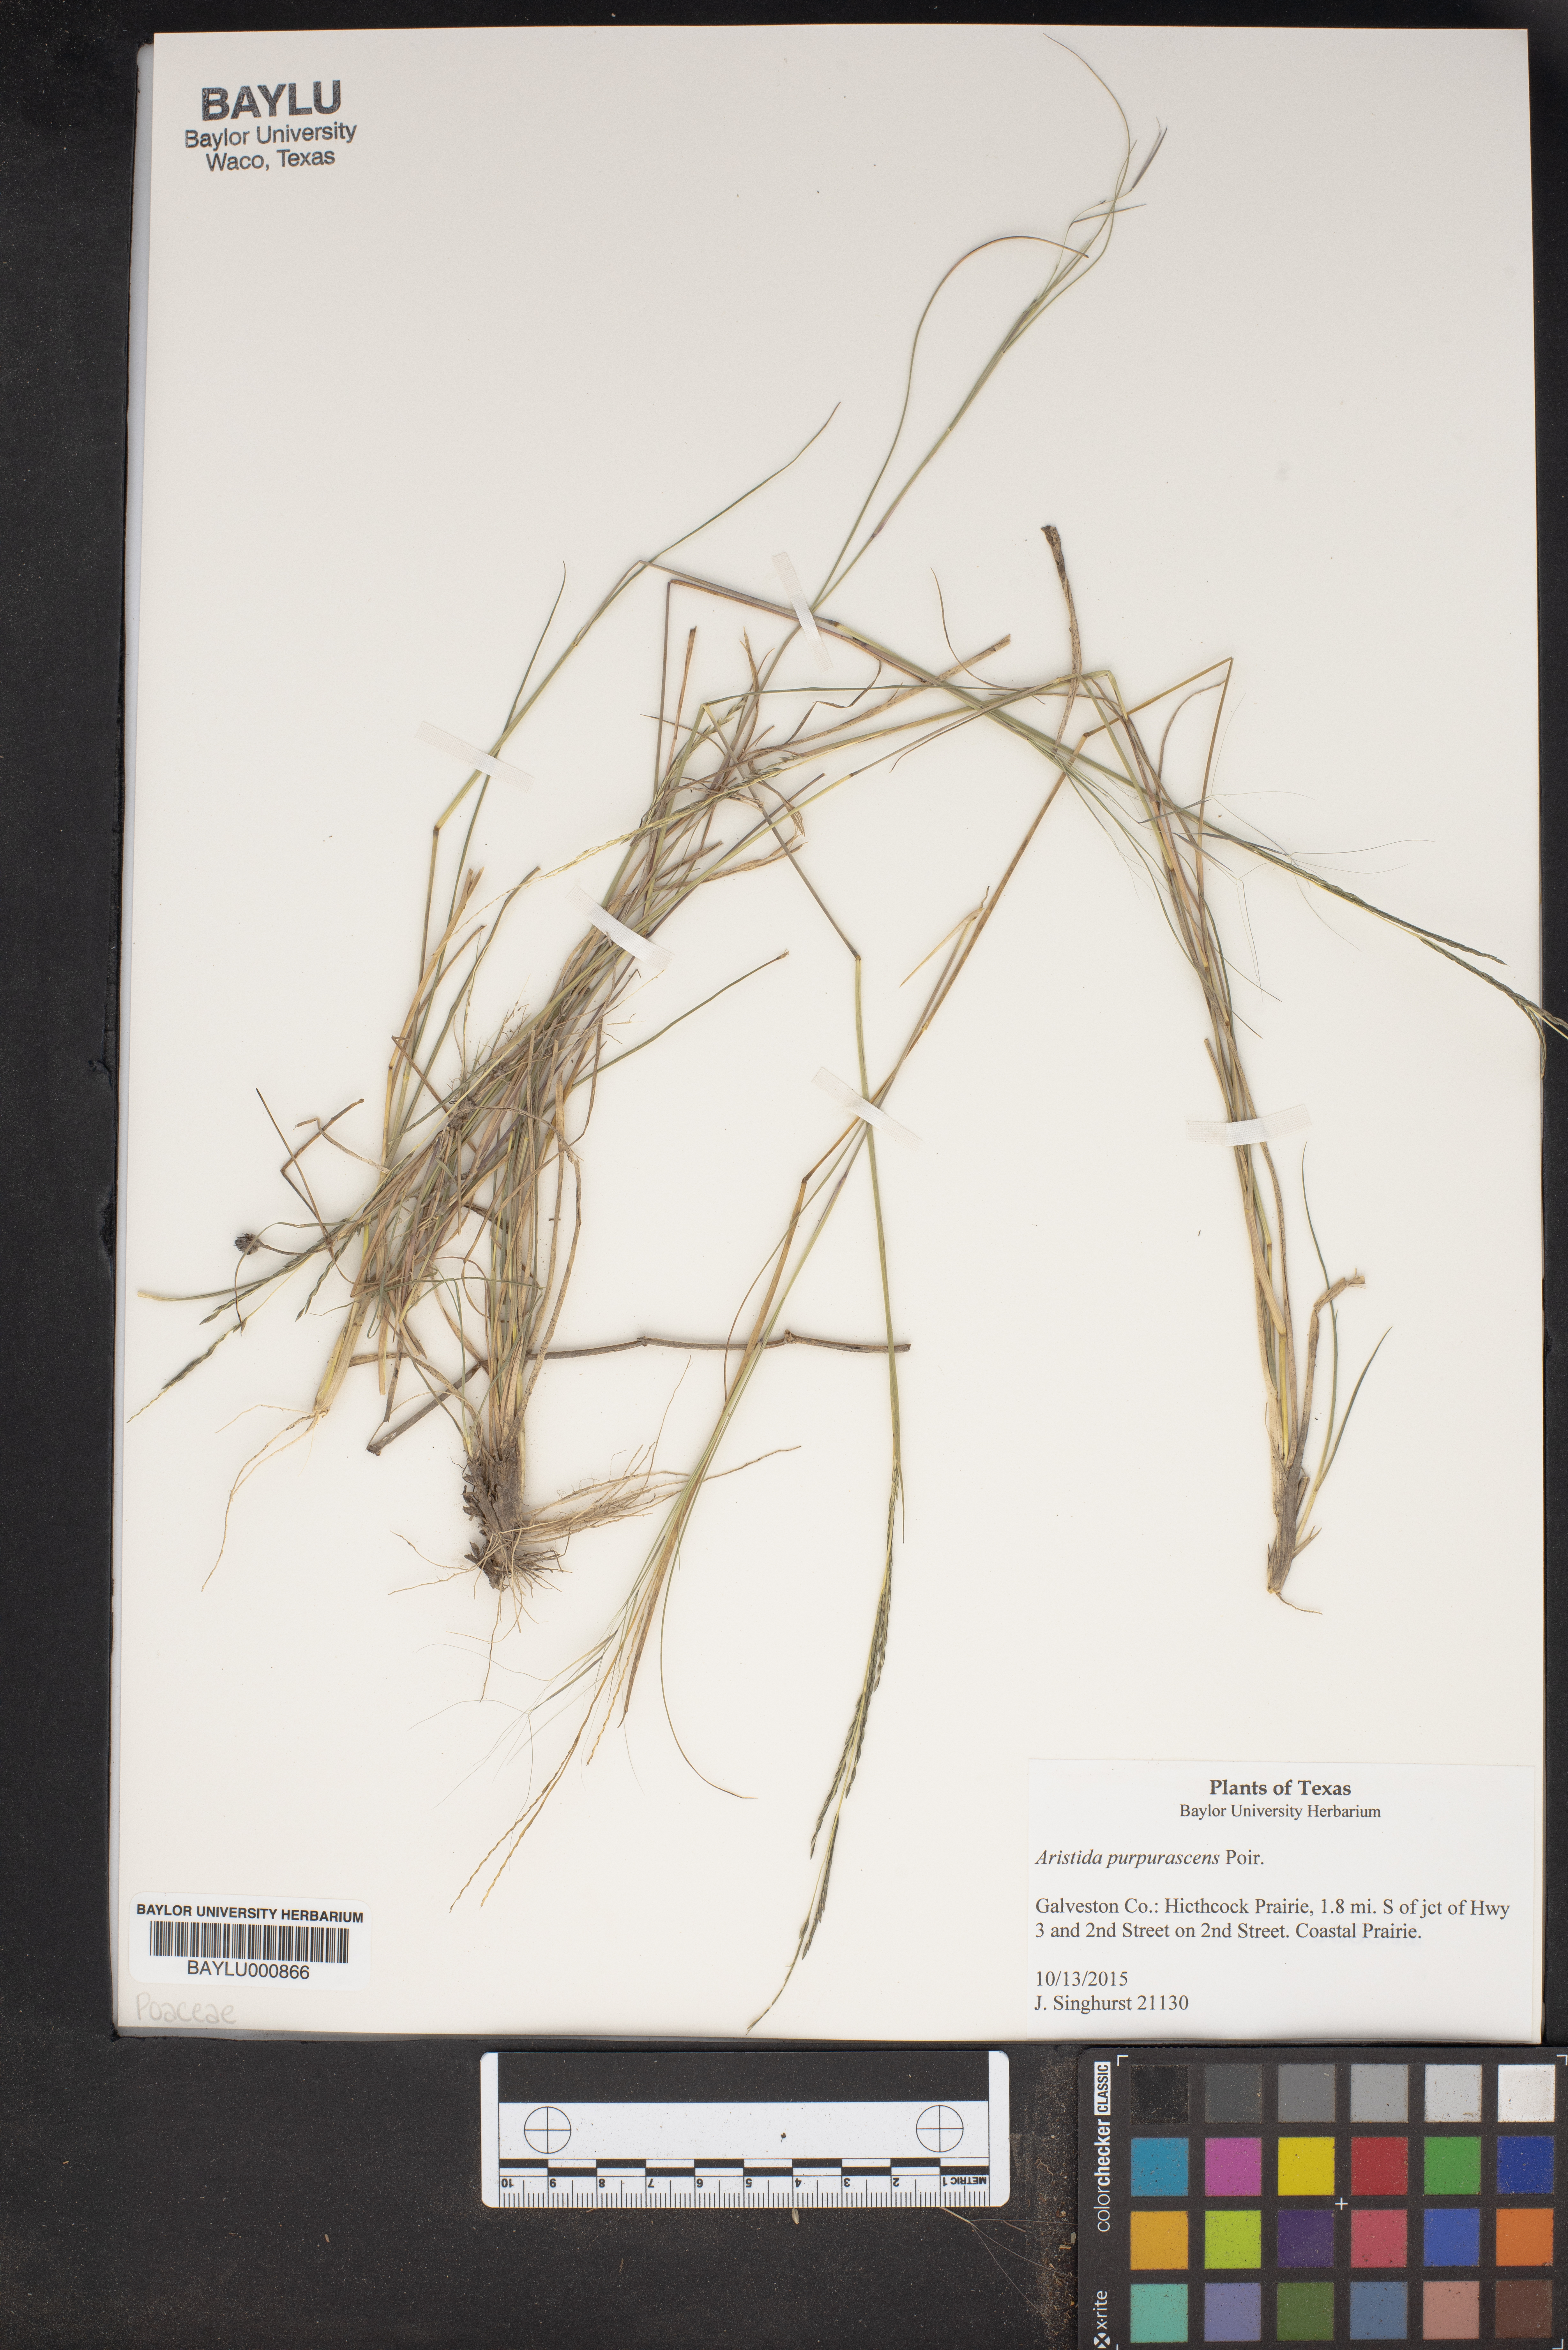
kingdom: Plantae
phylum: Tracheophyta
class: Liliopsida
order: Poales
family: Poaceae
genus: Aristida
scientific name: Aristida purpurascens
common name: Arrow-feather
